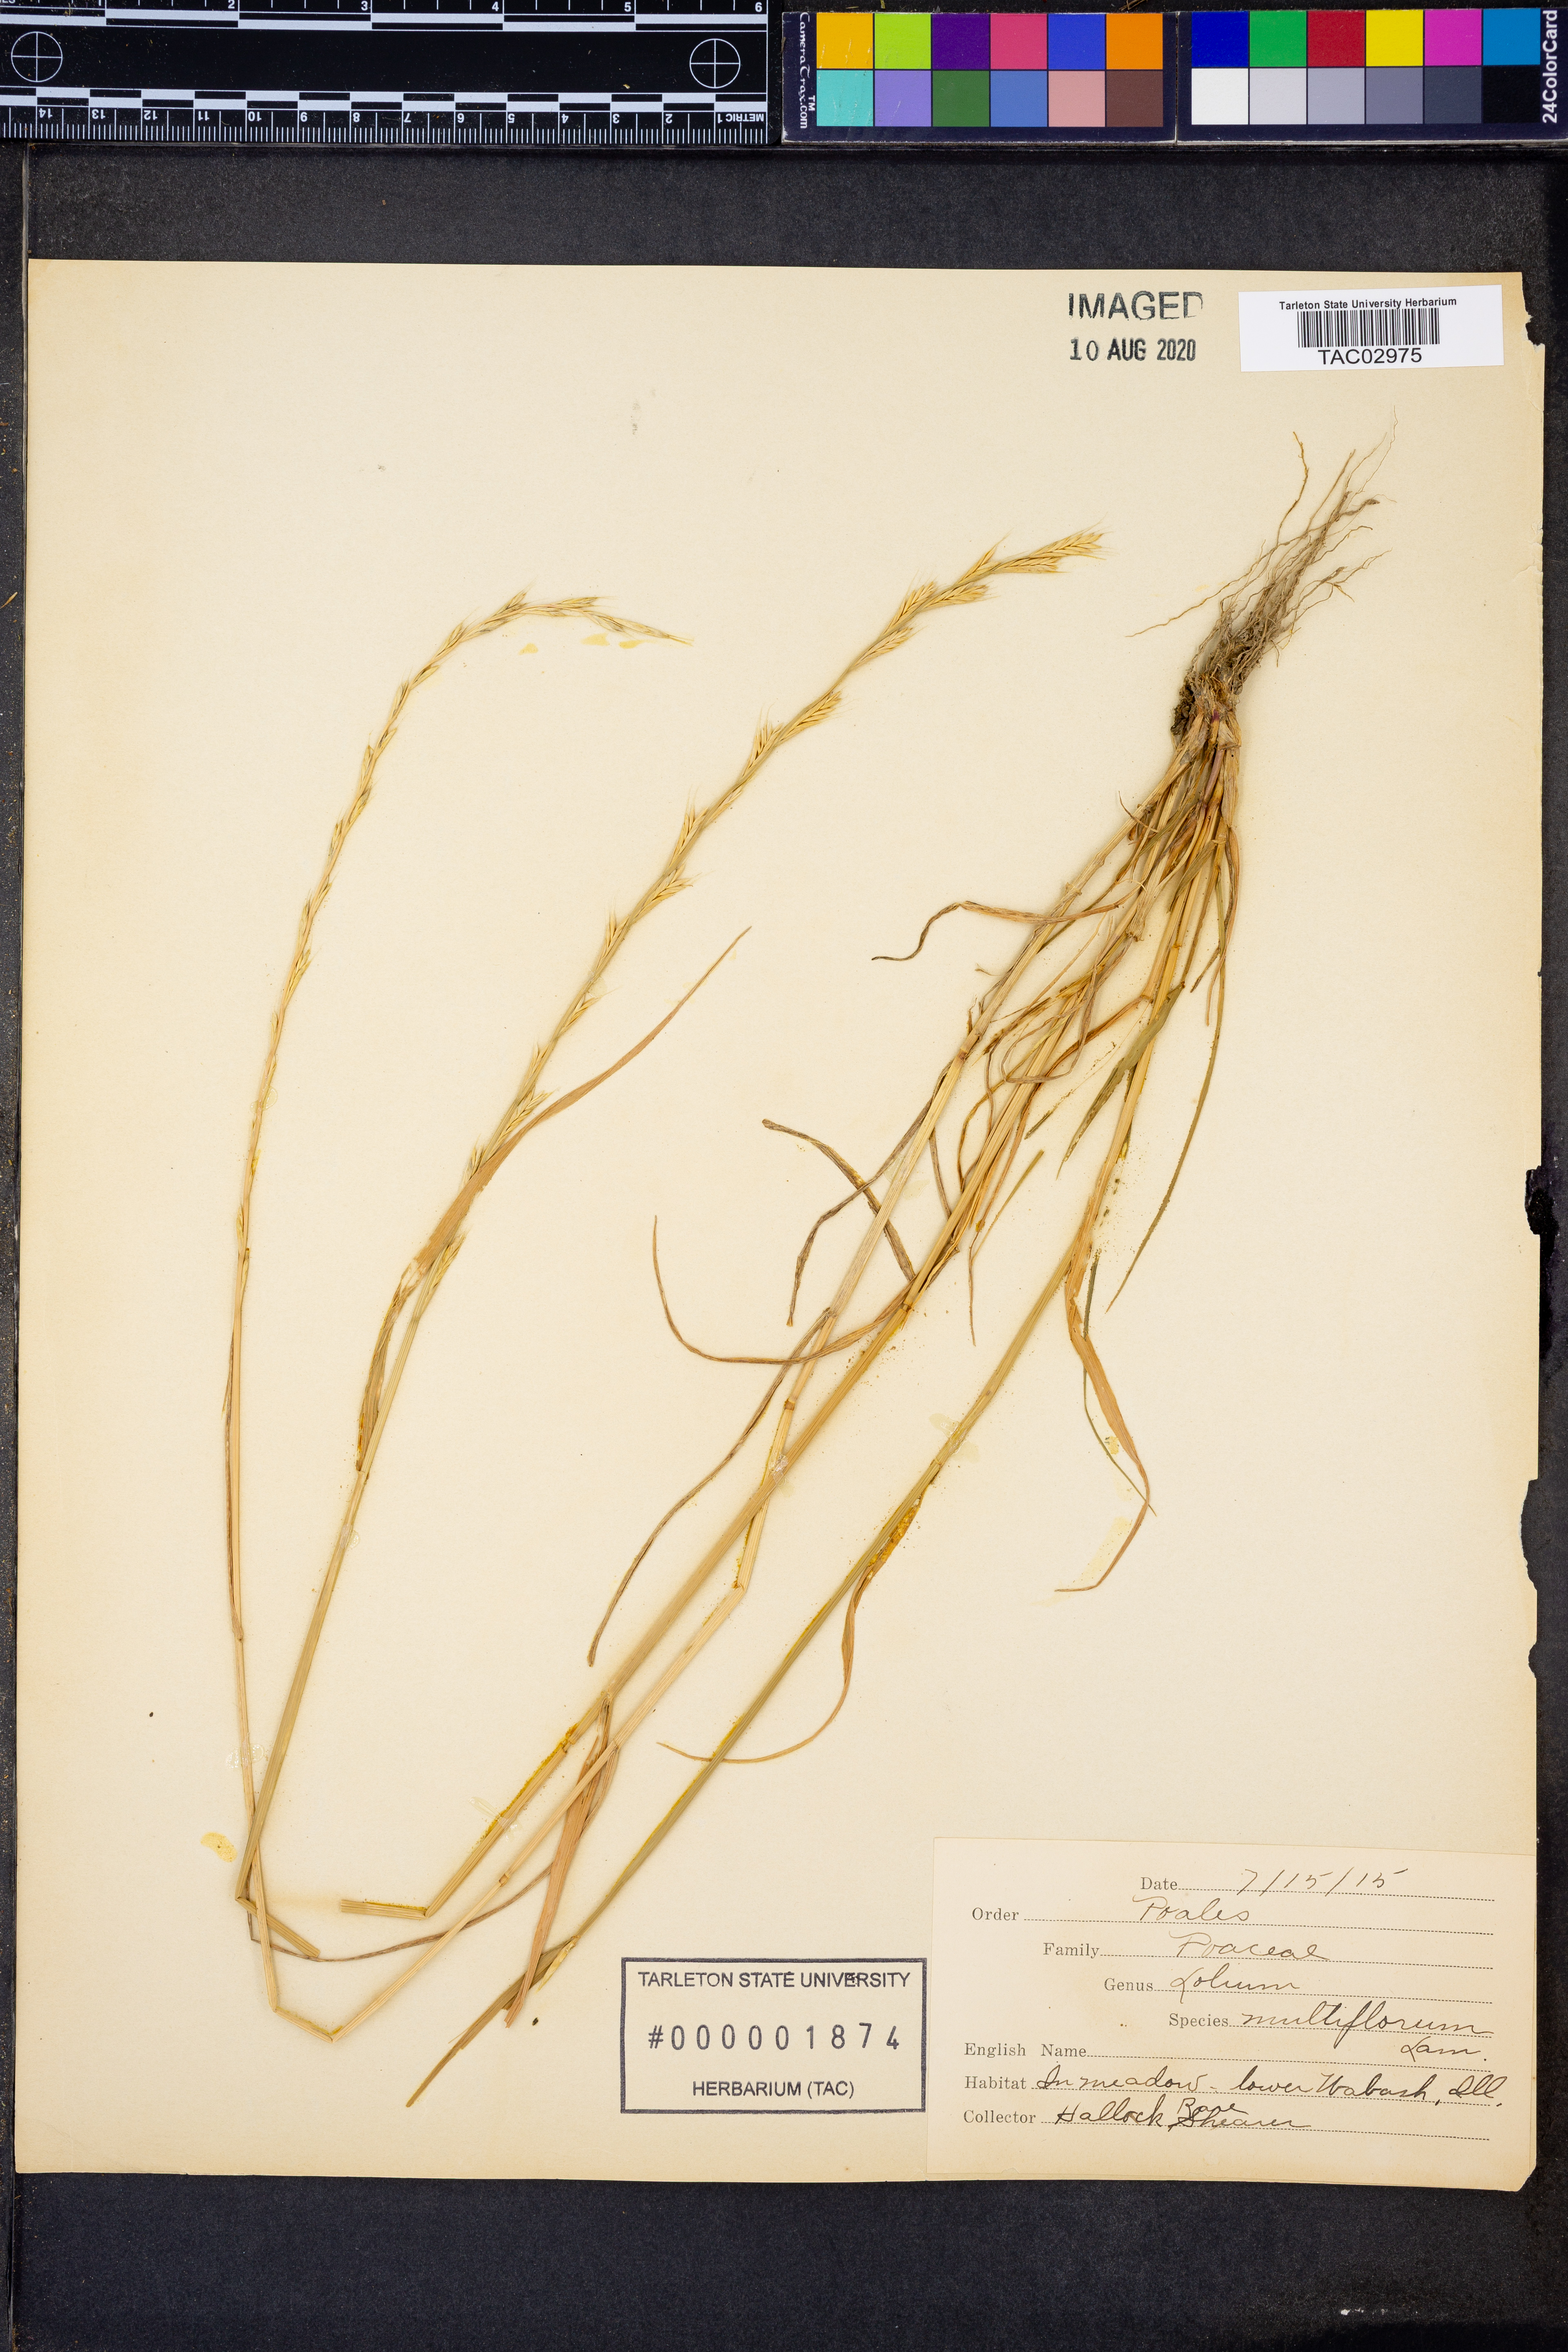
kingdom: Plantae
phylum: Tracheophyta
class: Liliopsida
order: Poales
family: Poaceae
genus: Lolium
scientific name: Lolium multiflorum
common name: Annual ryegrass
